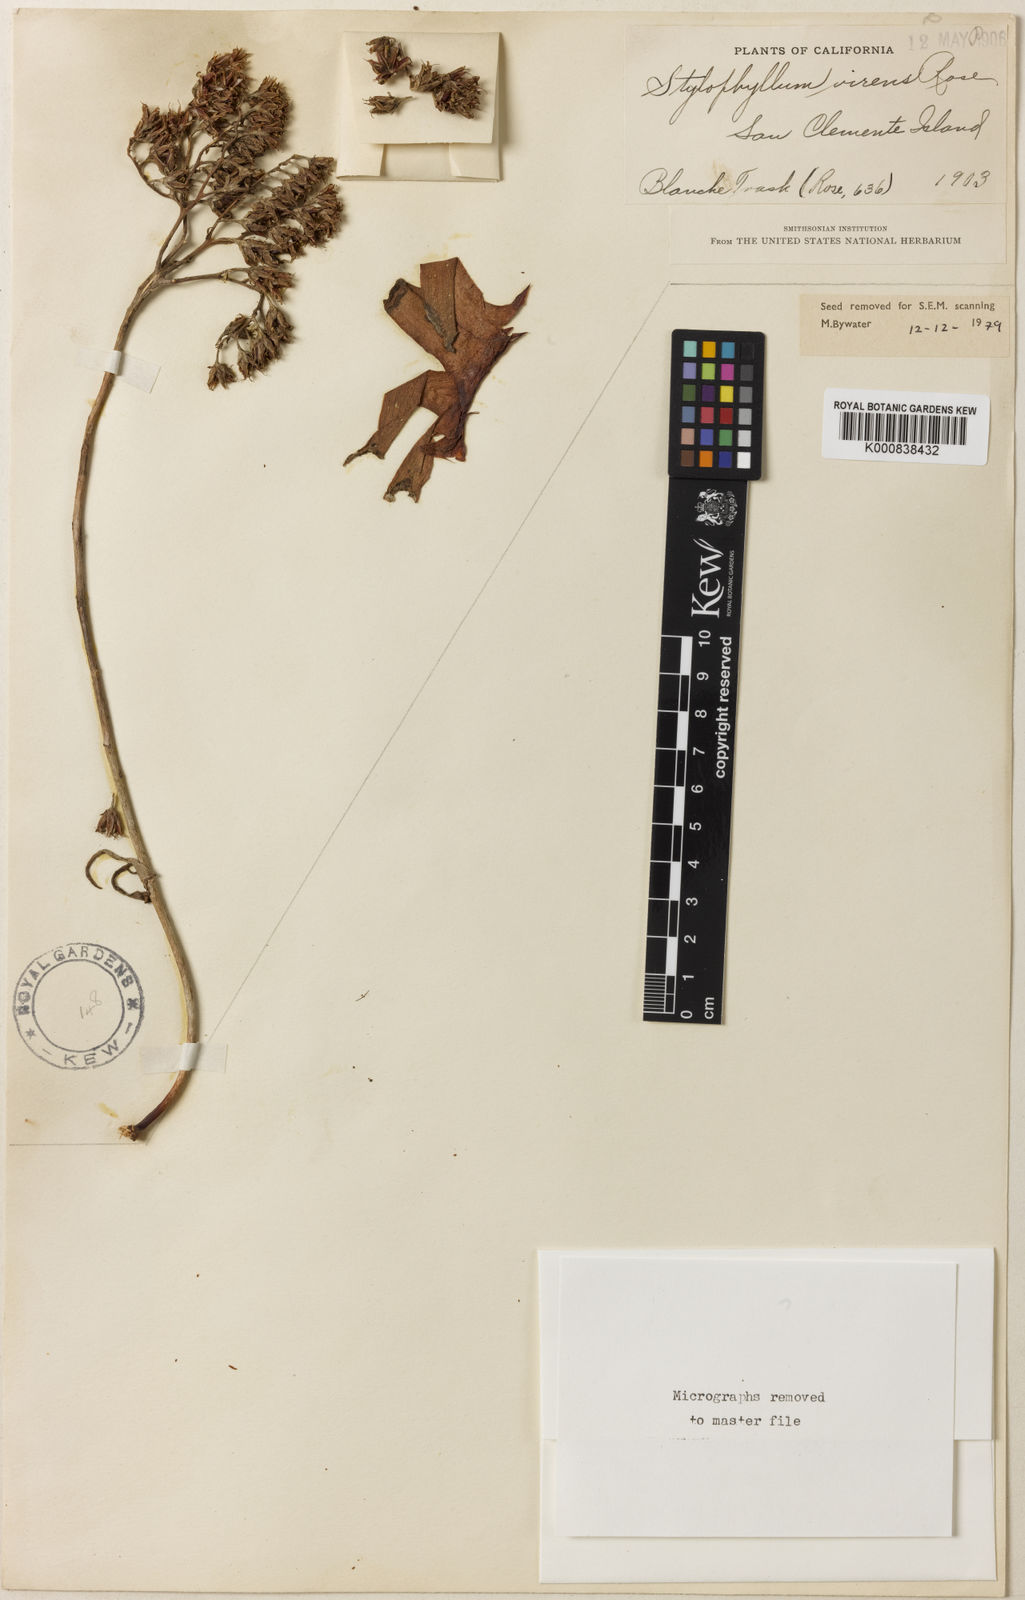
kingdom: Plantae
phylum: Tracheophyta
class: Magnoliopsida
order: Saxifragales
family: Crassulaceae
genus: Dudleya
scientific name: Dudleya virens
